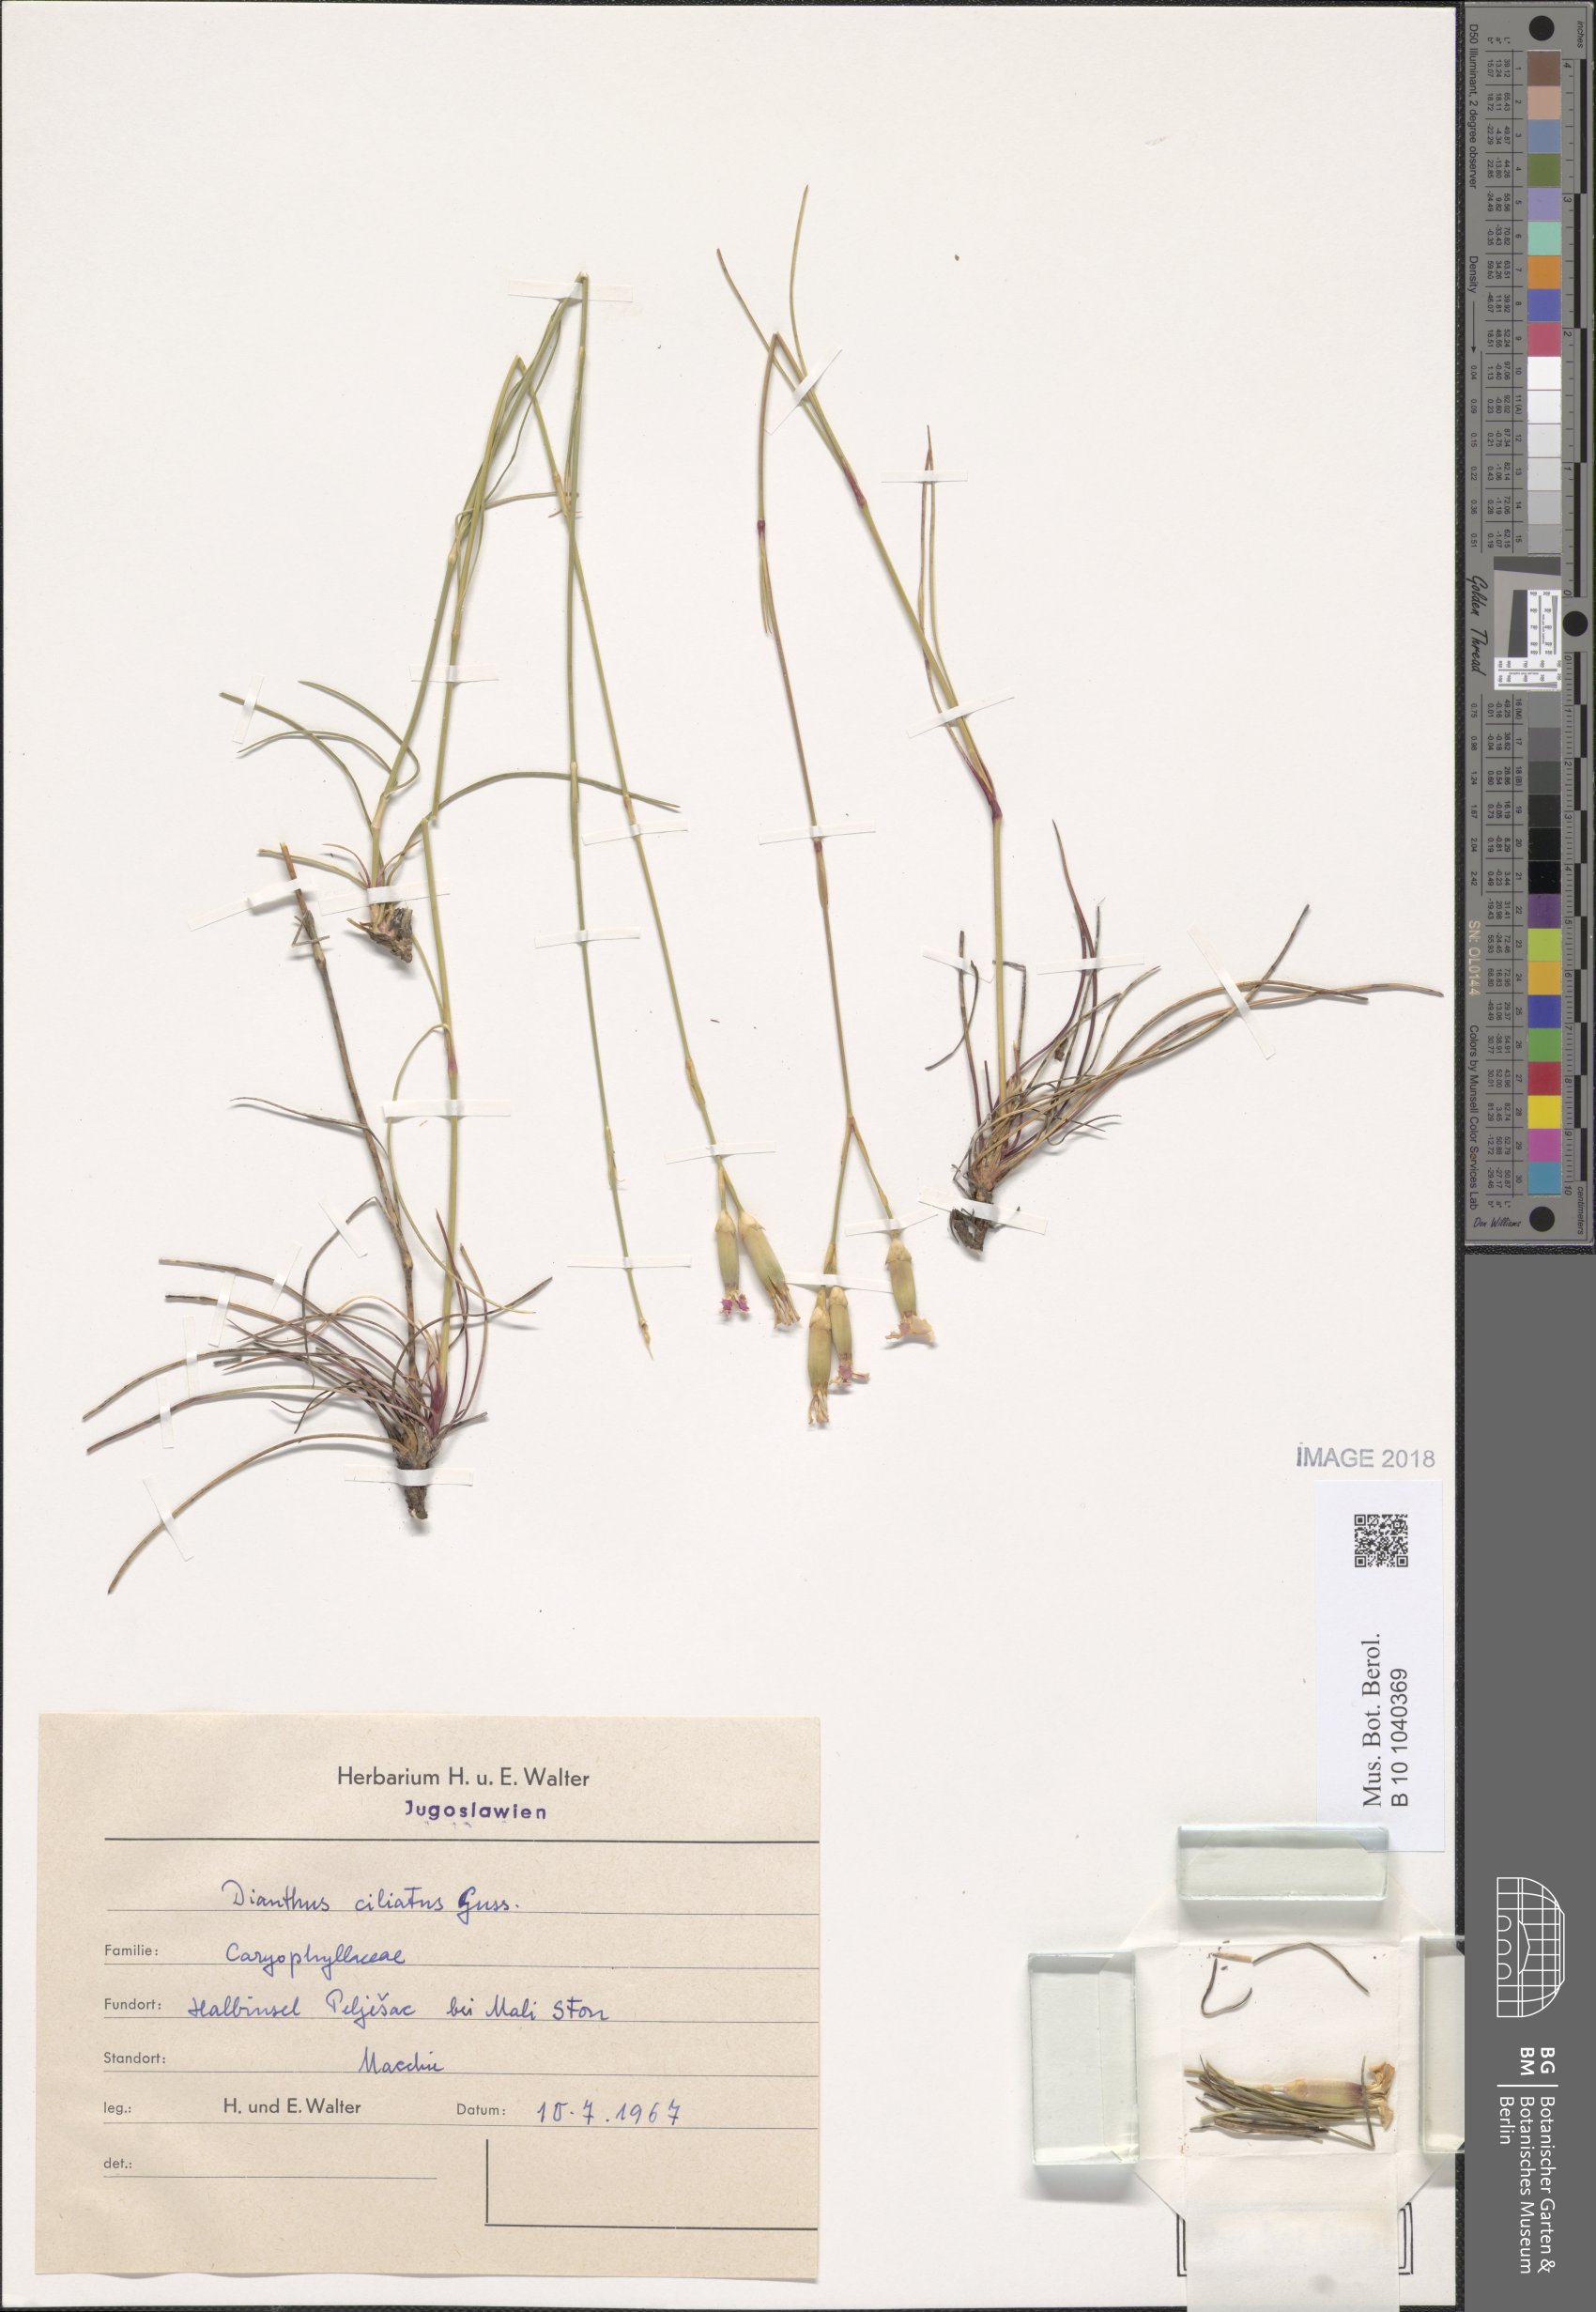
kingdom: Plantae
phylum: Tracheophyta
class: Magnoliopsida
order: Caryophyllales
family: Caryophyllaceae
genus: Dianthus
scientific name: Dianthus sylvestris
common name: Wood pink
